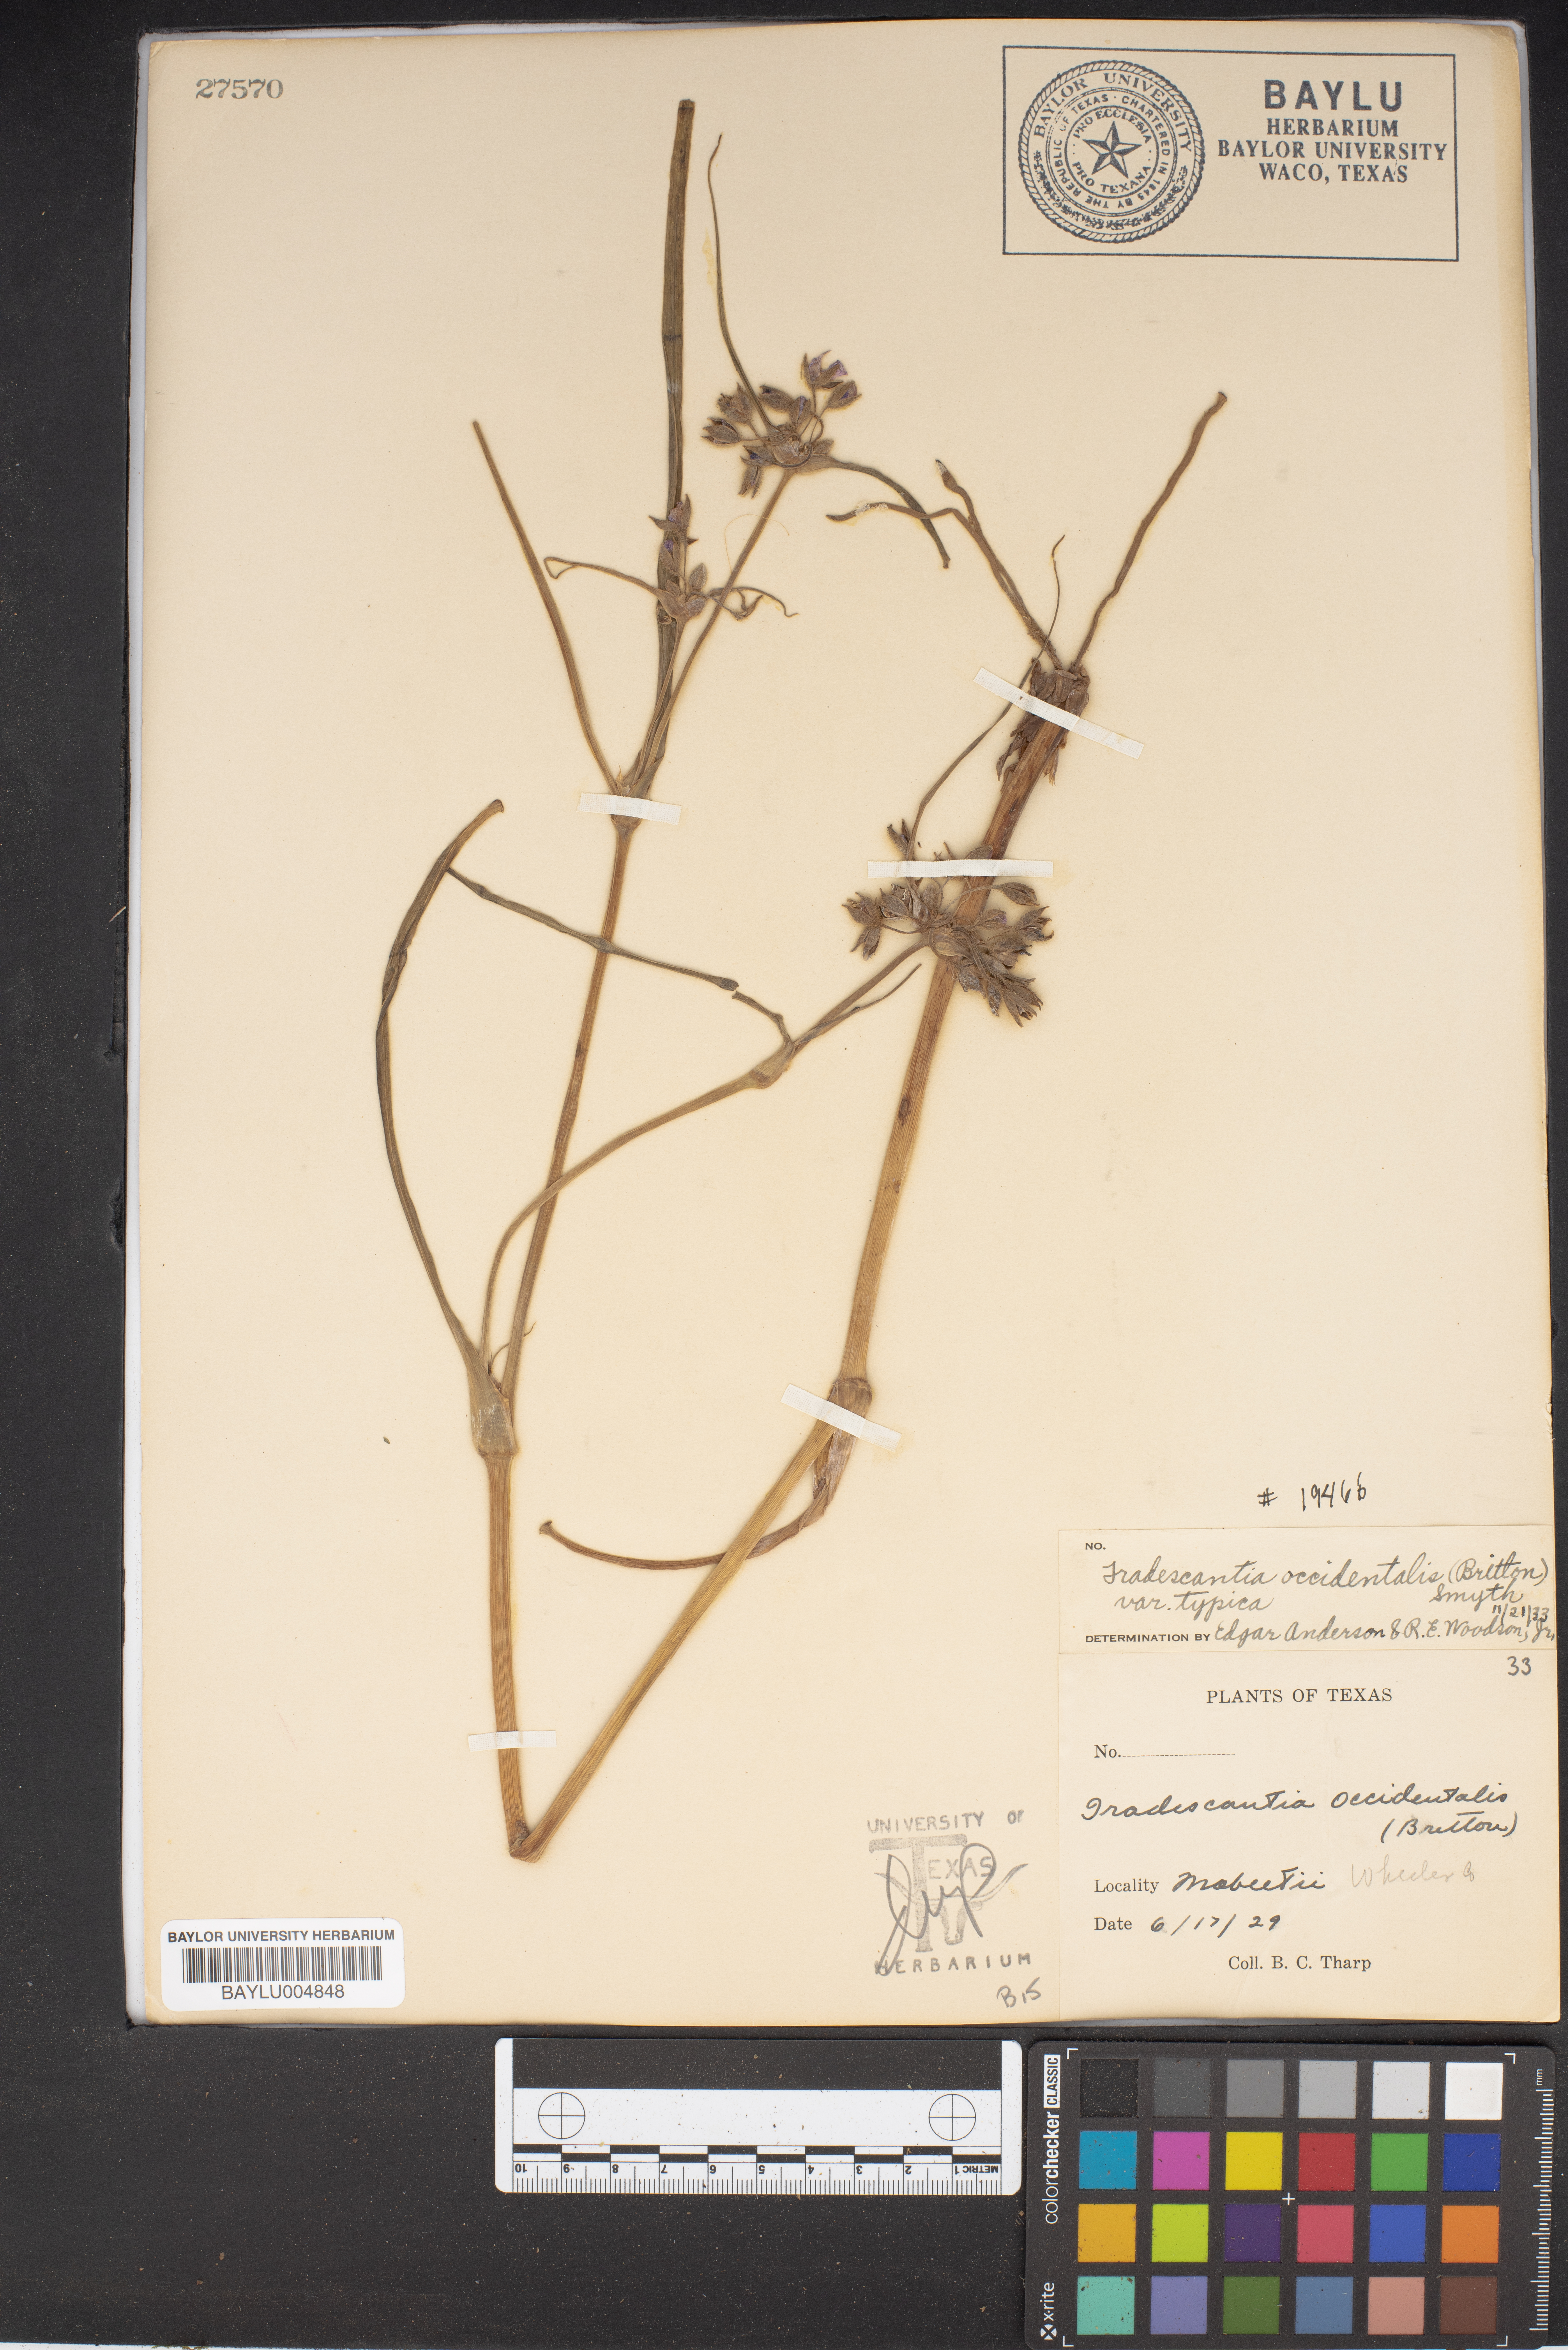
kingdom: Plantae
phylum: Tracheophyta
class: Liliopsida
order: Commelinales
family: Commelinaceae
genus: Tradescantia
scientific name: Tradescantia occidentalis
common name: Prairie spiderwort
